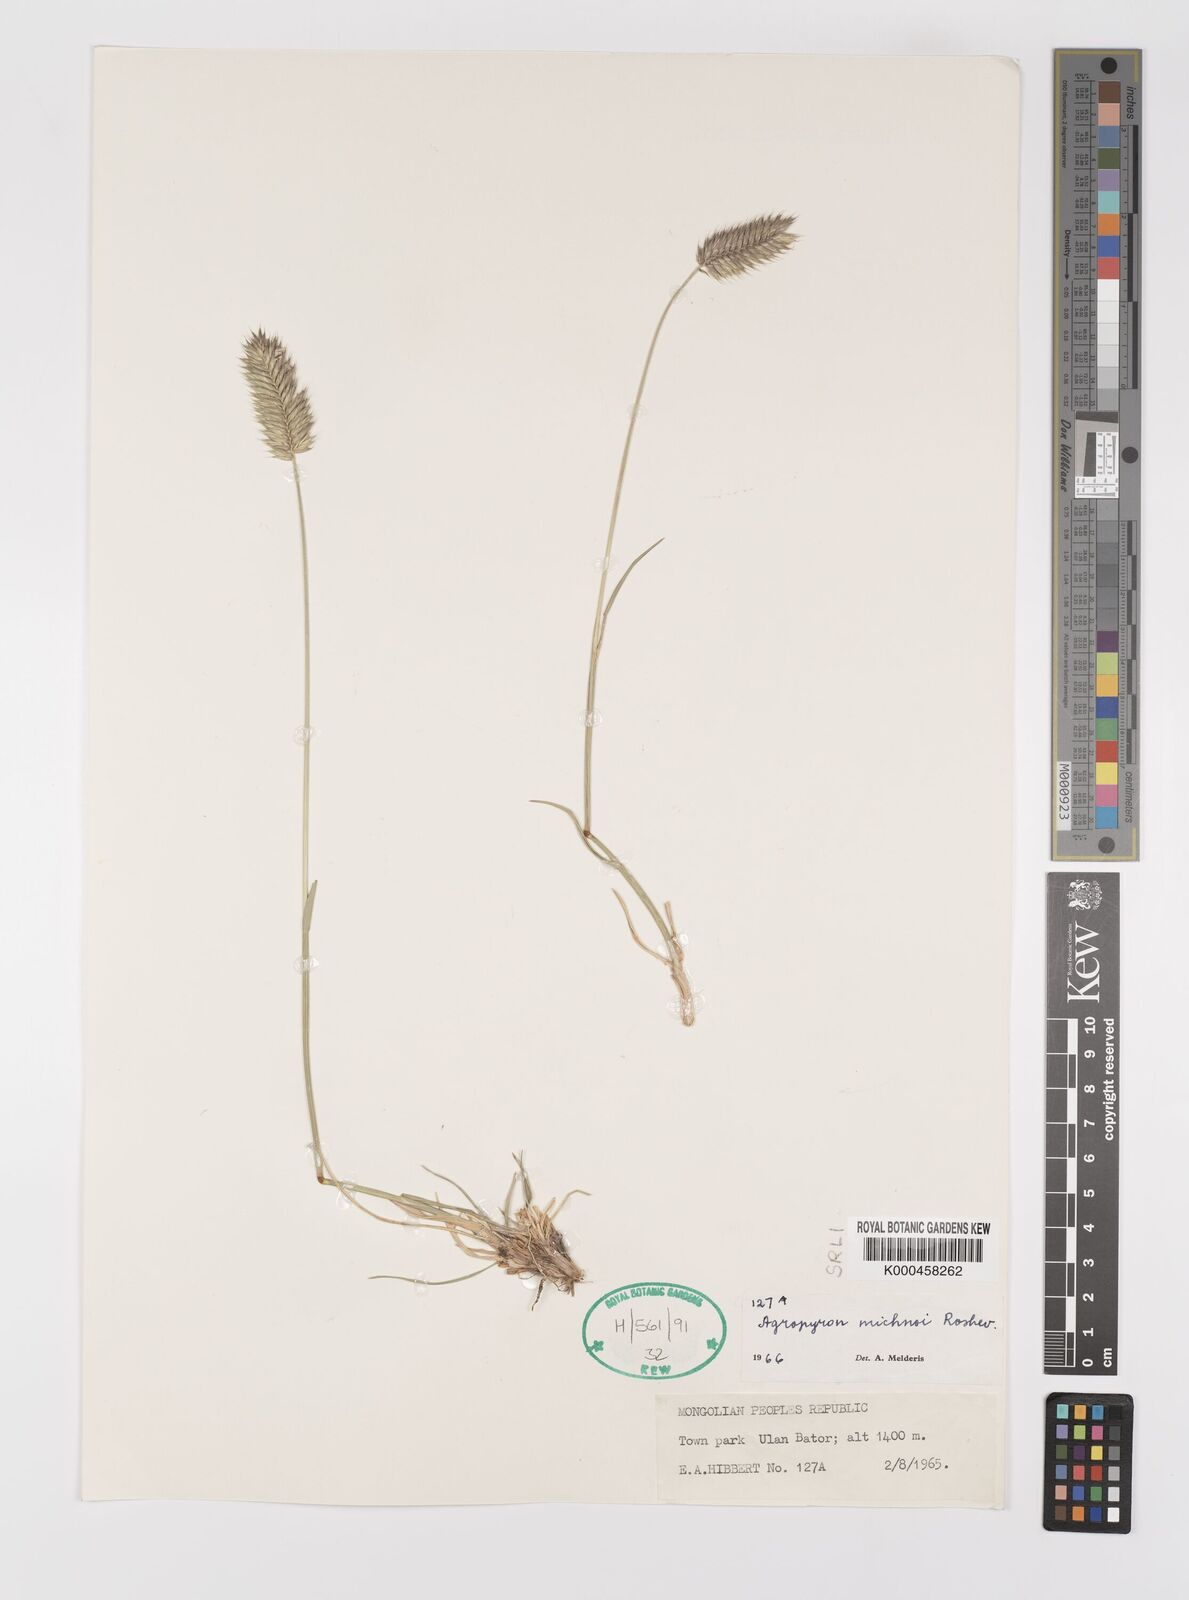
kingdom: Plantae
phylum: Tracheophyta
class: Liliopsida
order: Poales
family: Poaceae
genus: Agropyron
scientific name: Agropyron michnoi
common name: Michno's wheatgrass
